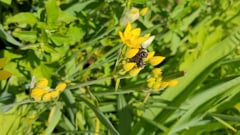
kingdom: Animalia
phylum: Arthropoda
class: Insecta
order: Diptera
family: Syrphidae
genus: Merodon
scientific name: Merodon equestris
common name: Greater bulb-fly
